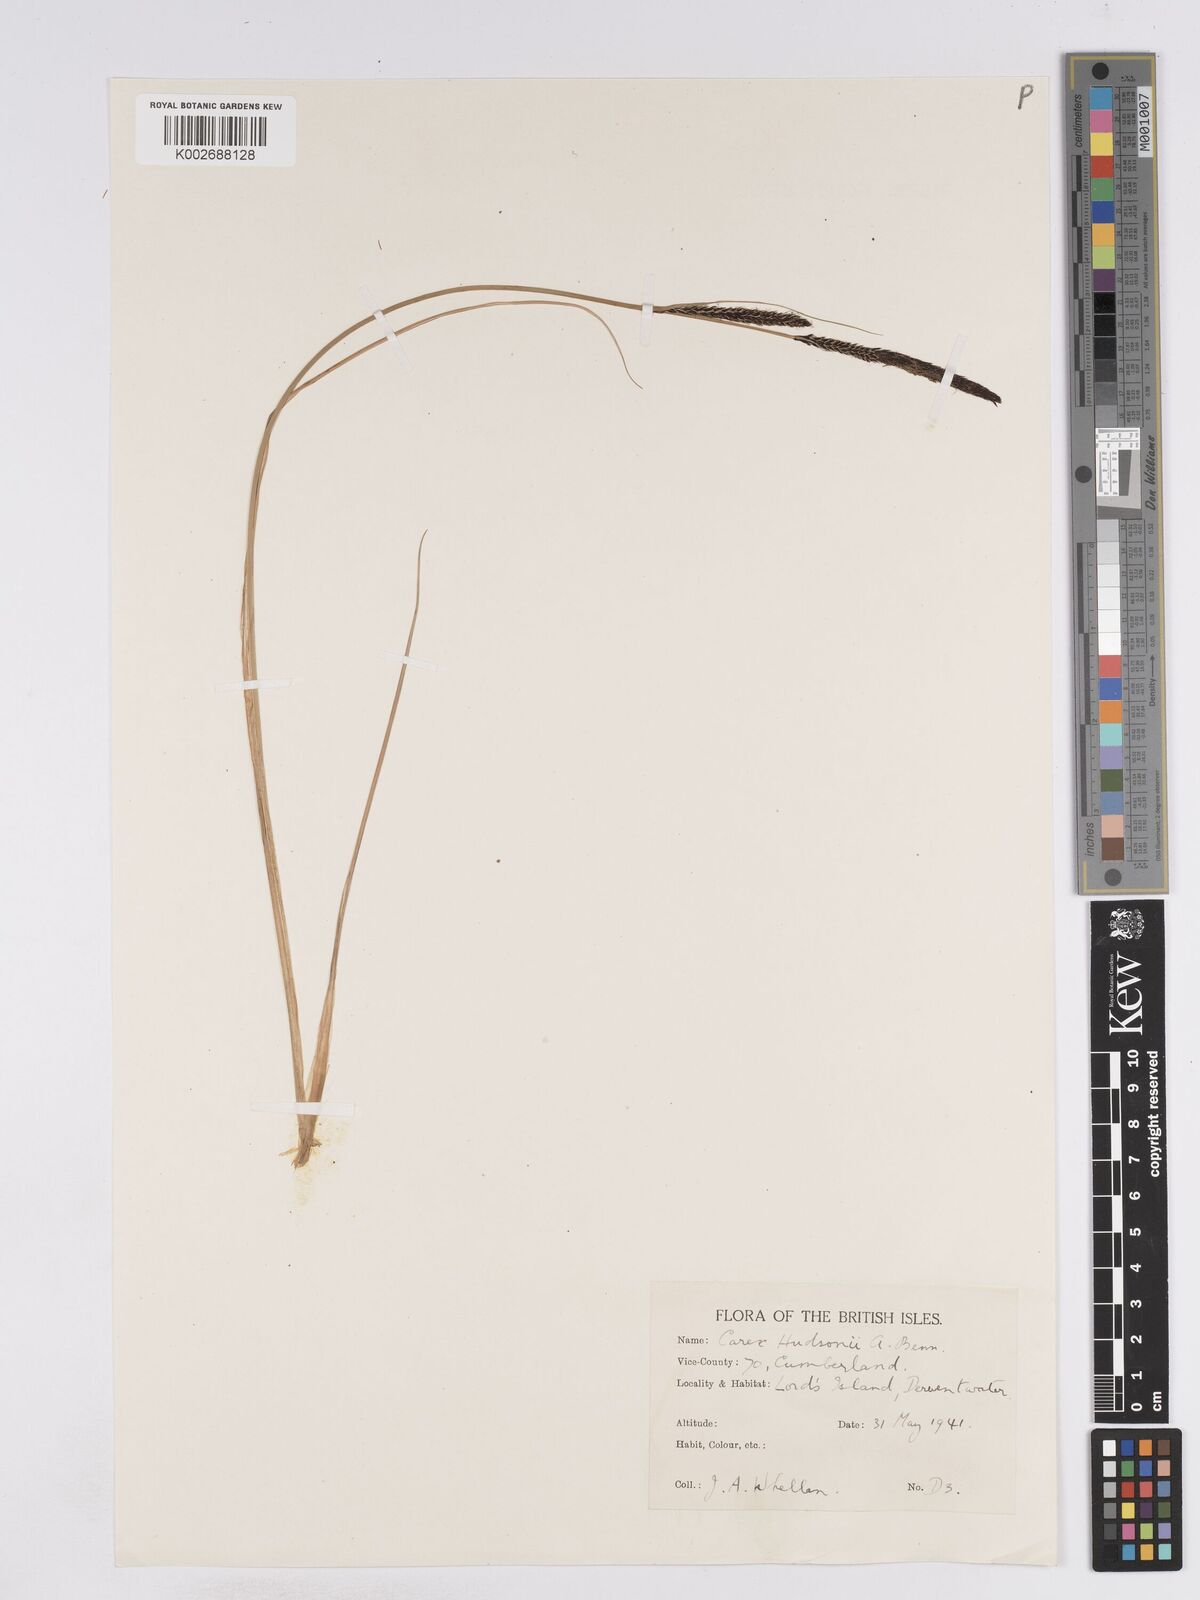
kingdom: Plantae
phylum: Tracheophyta
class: Liliopsida
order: Poales
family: Cyperaceae
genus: Carex
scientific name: Carex elata
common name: Tufted sedge
